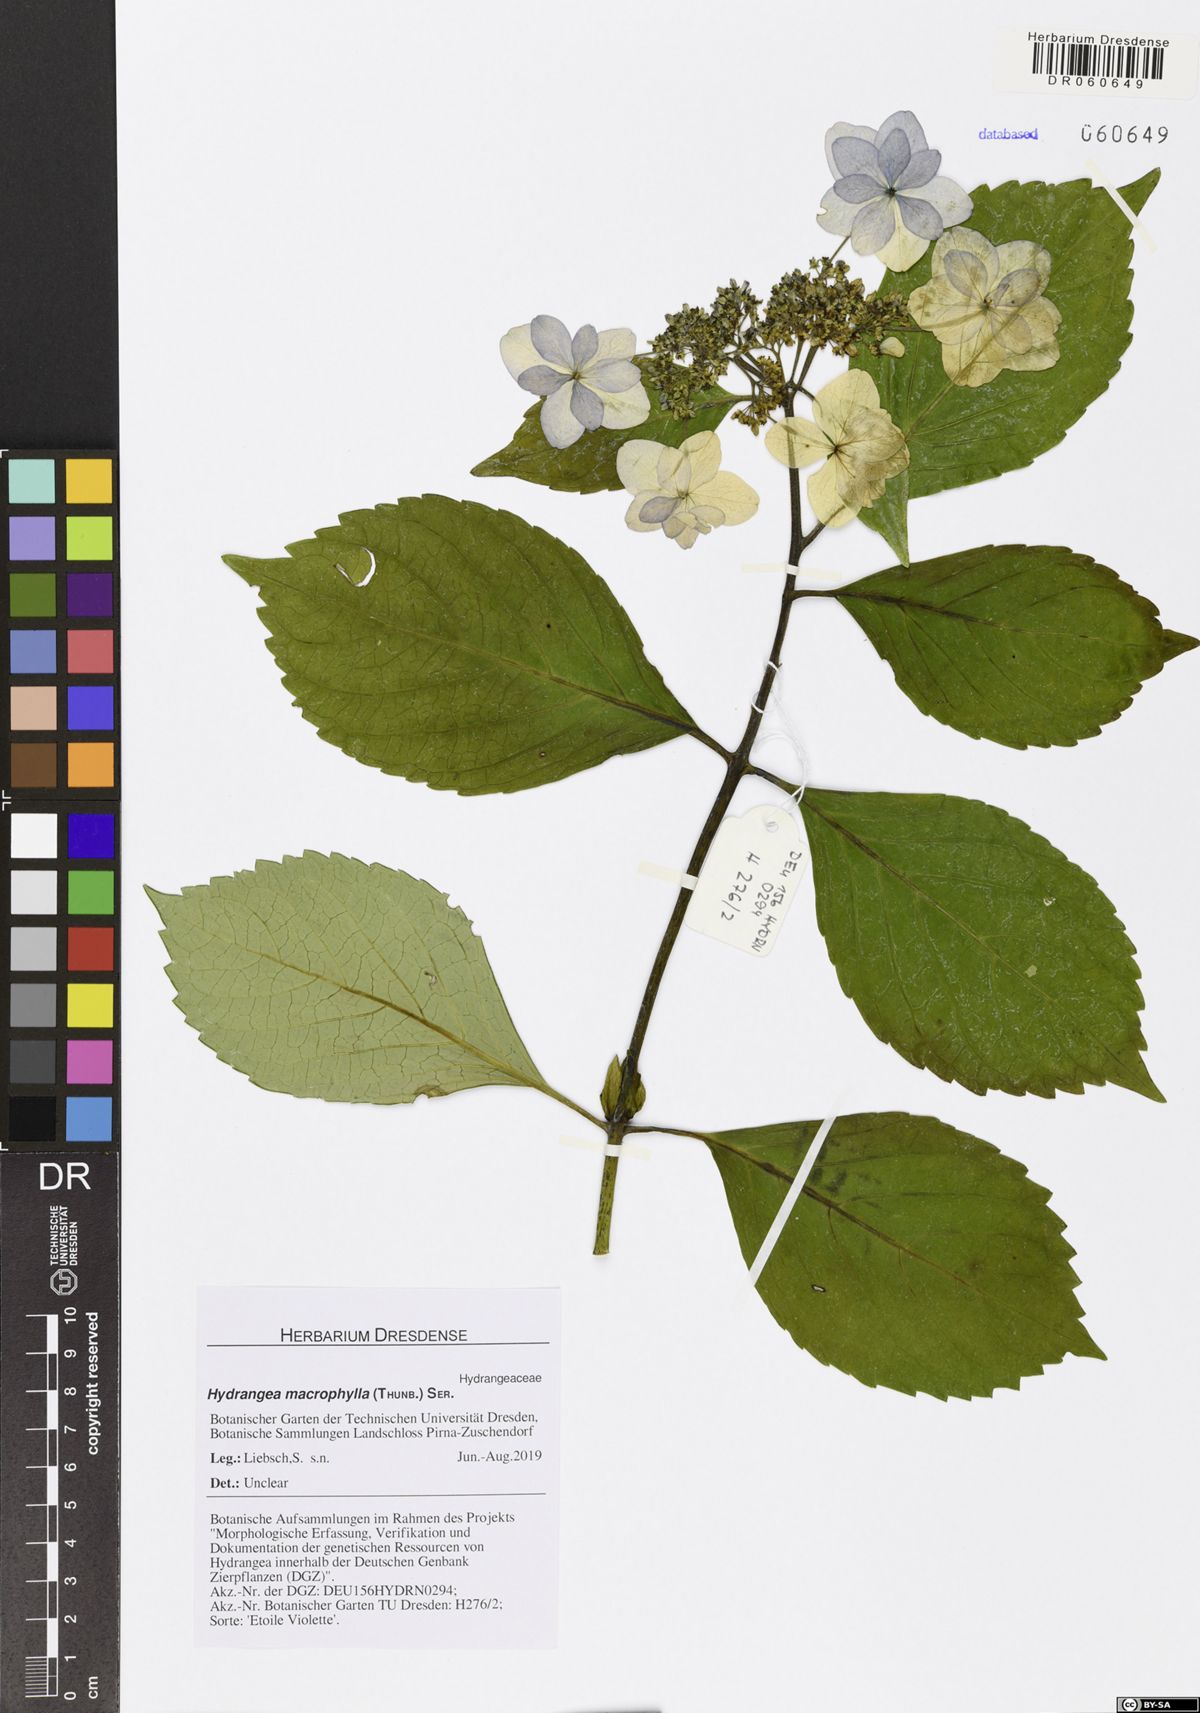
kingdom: Plantae
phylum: Tracheophyta
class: Magnoliopsida
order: Cornales
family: Hydrangeaceae
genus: Hydrangea
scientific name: Hydrangea macrophylla
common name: Hydrangea
